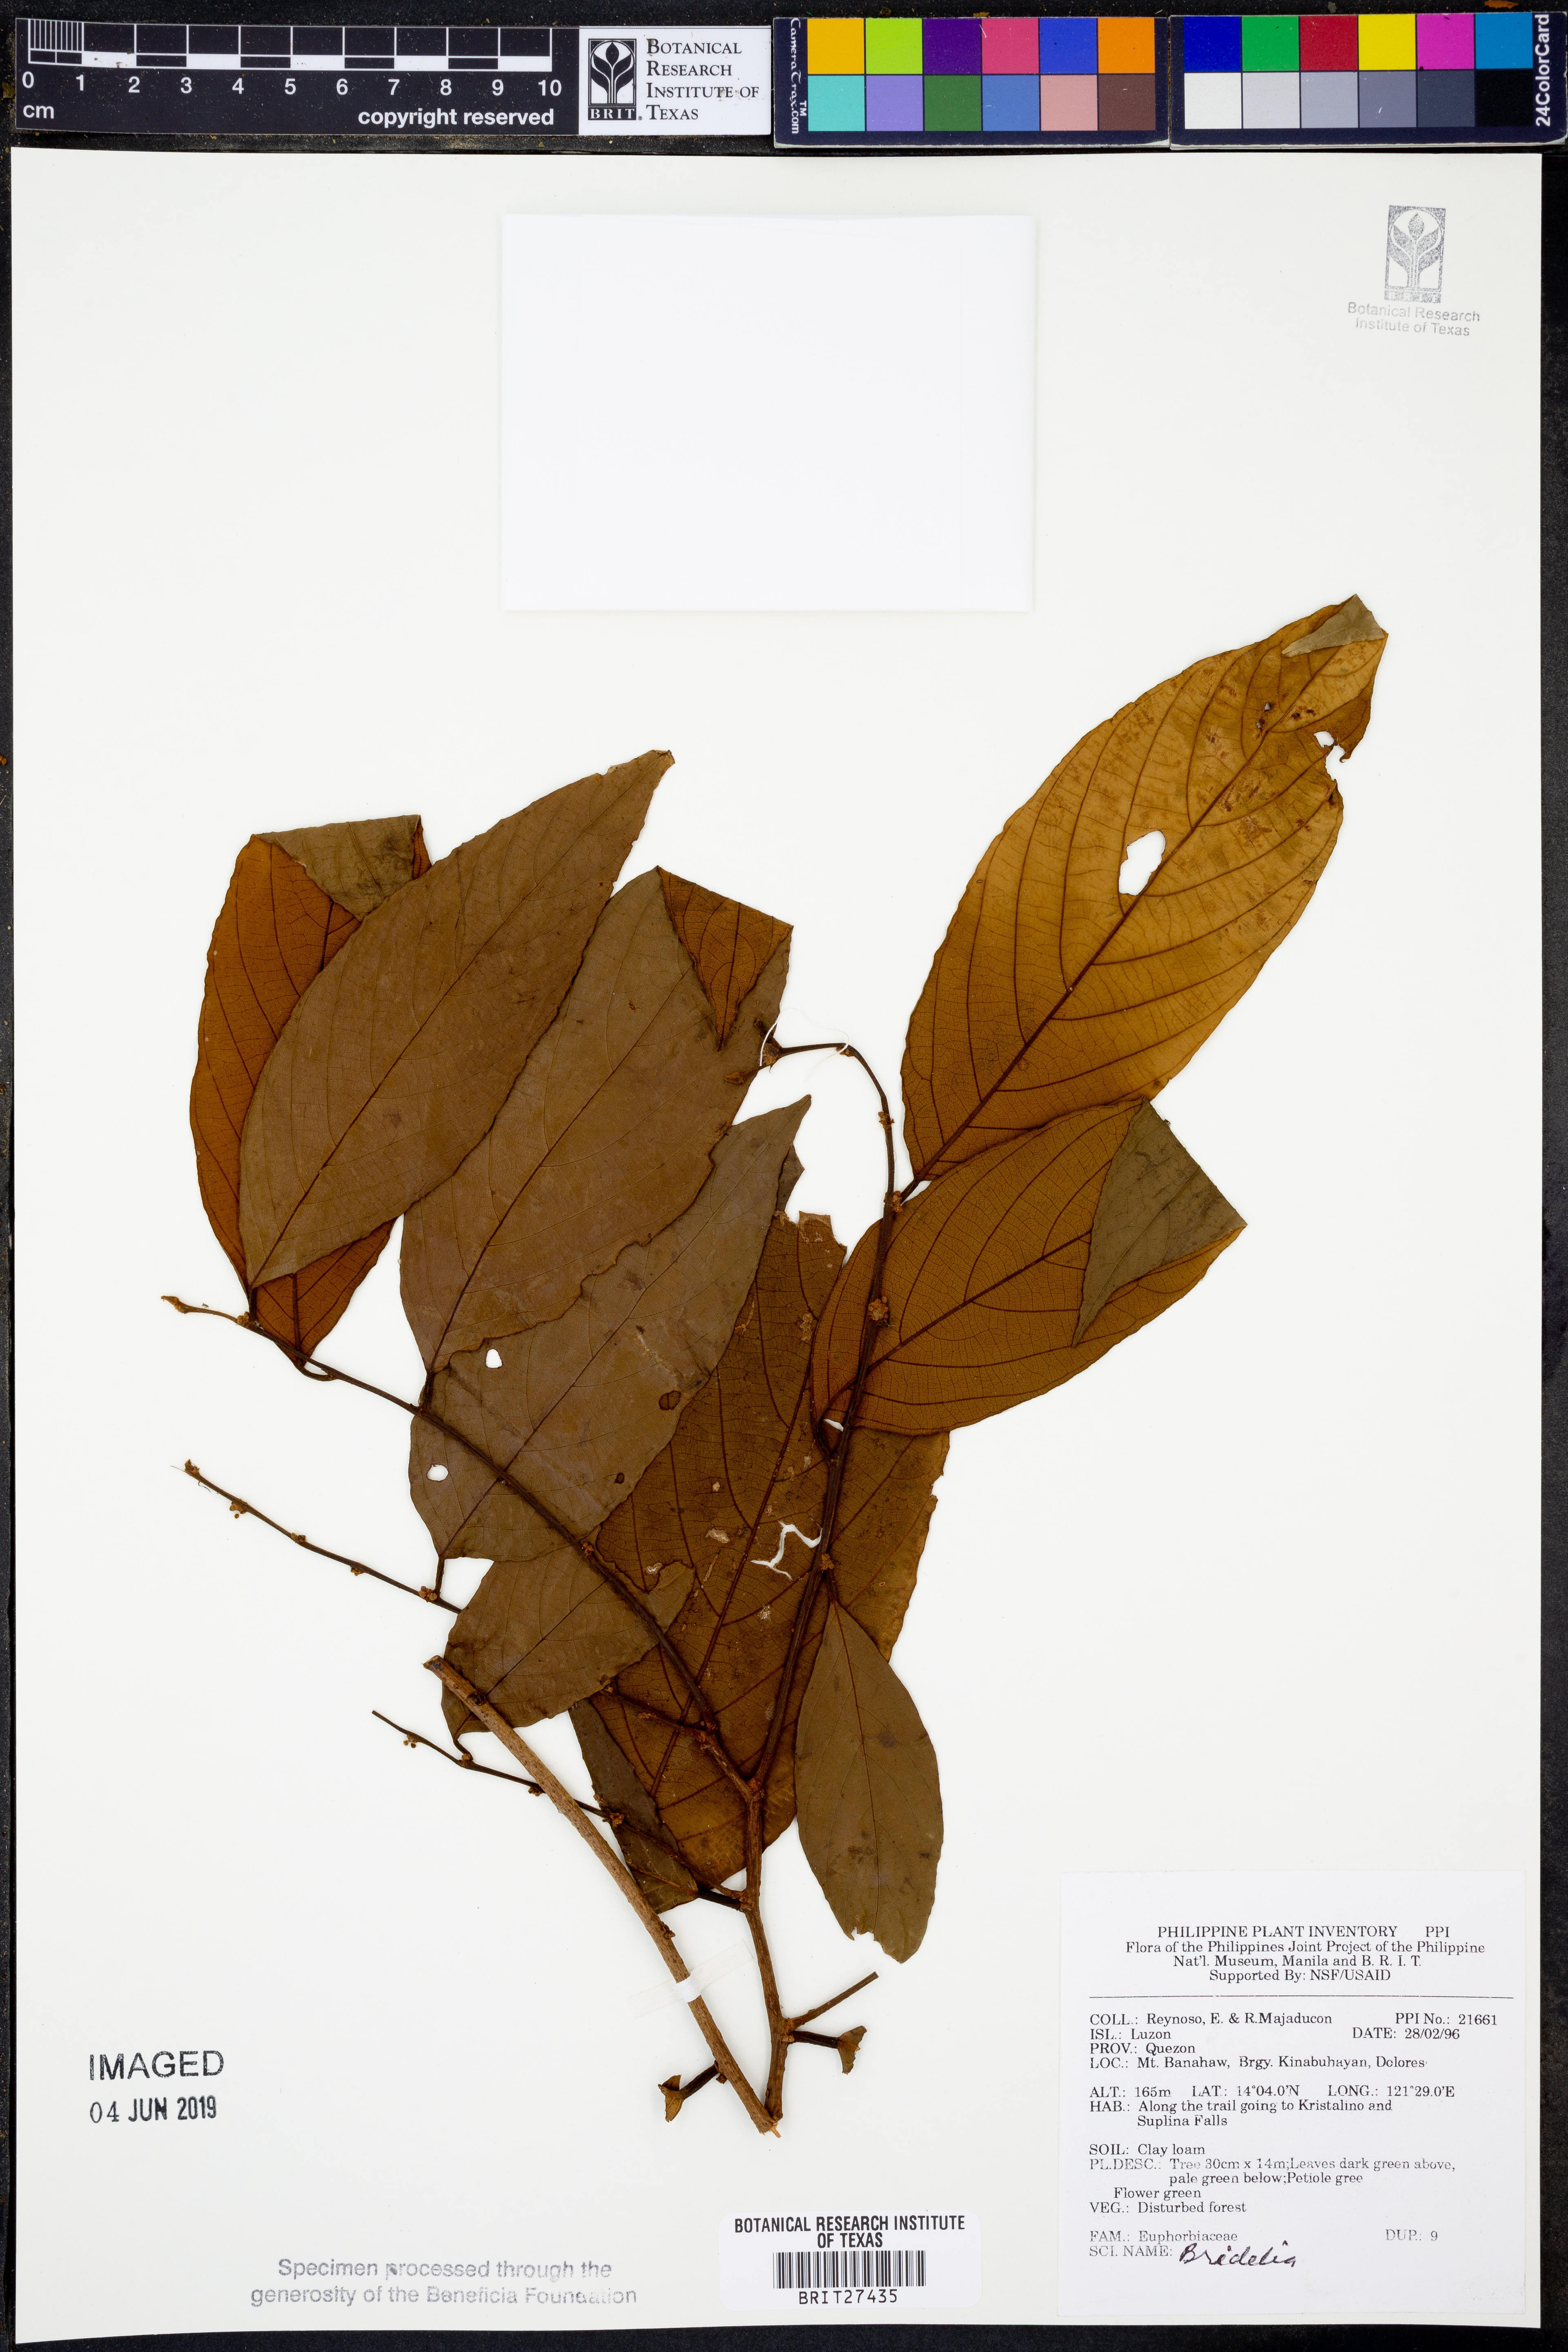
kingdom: Plantae
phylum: Tracheophyta
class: Magnoliopsida
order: Malpighiales
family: Phyllanthaceae
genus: Bridelia
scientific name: Bridelia
